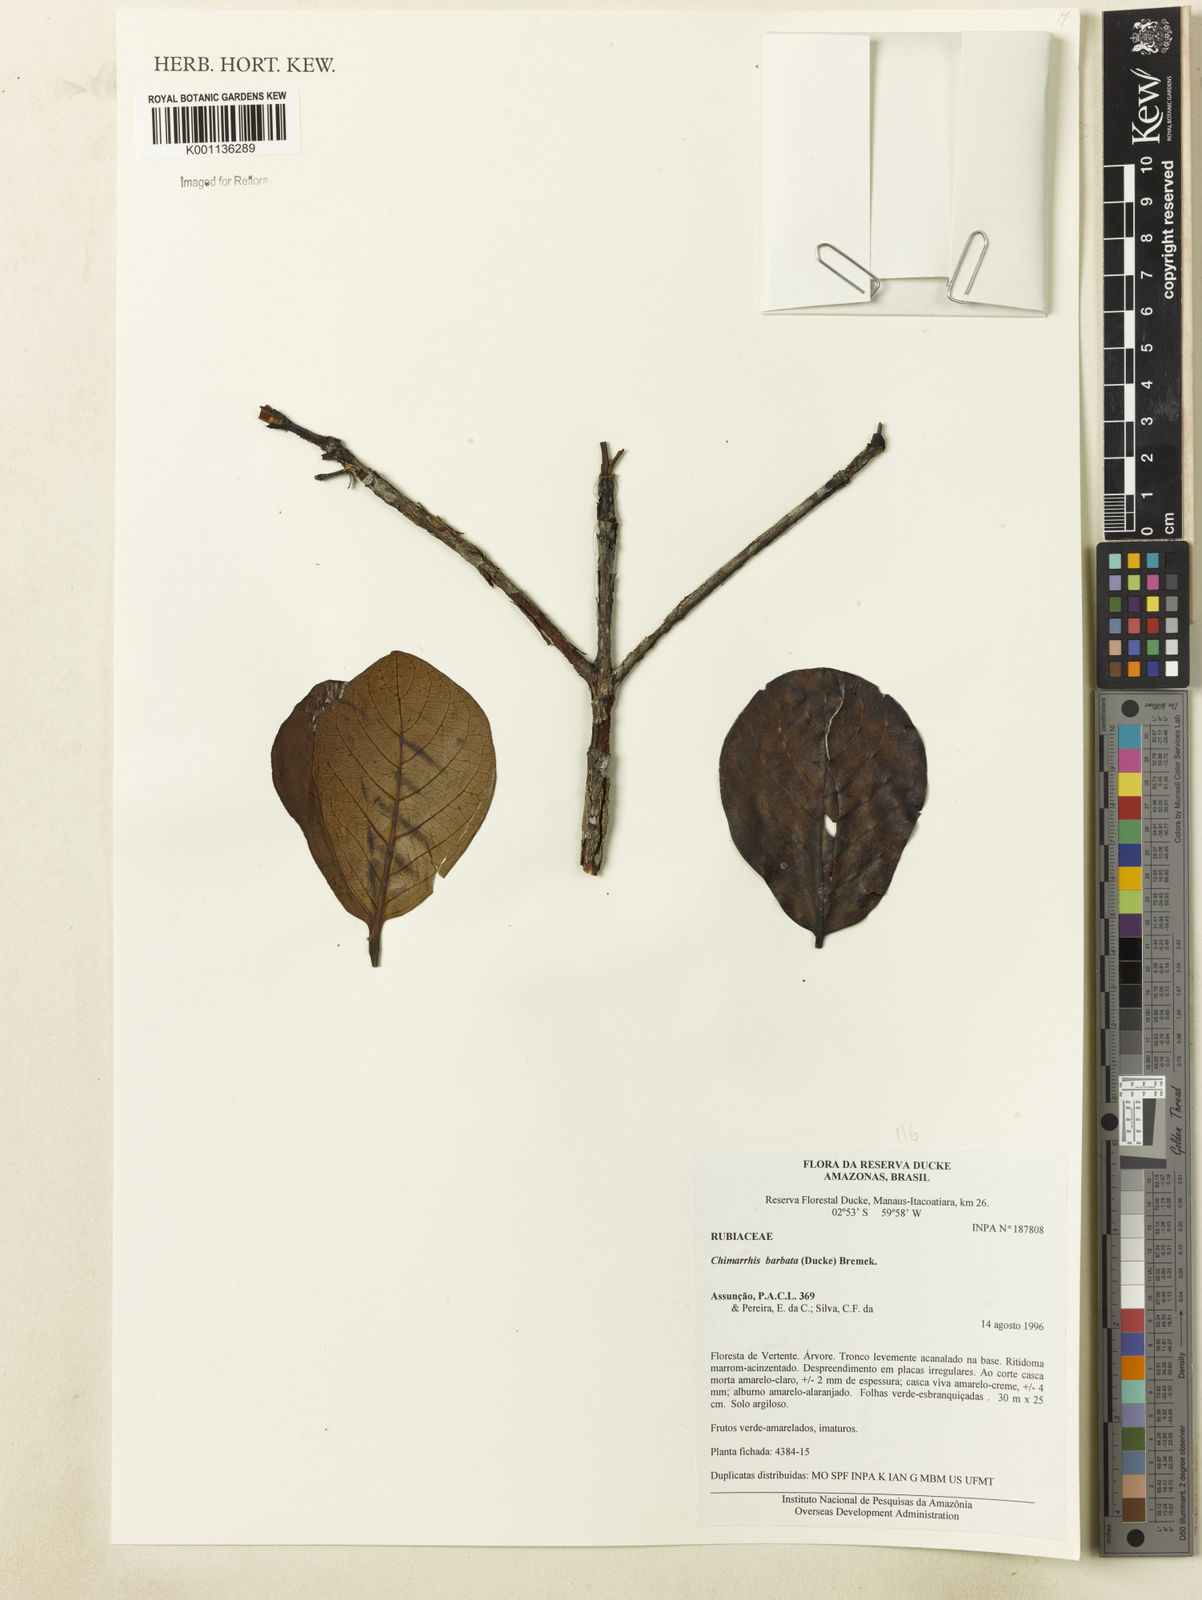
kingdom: Plantae
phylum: Tracheophyta
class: Magnoliopsida
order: Gentianales
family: Rubiaceae
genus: Chimarrhis
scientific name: Chimarrhis barbata
